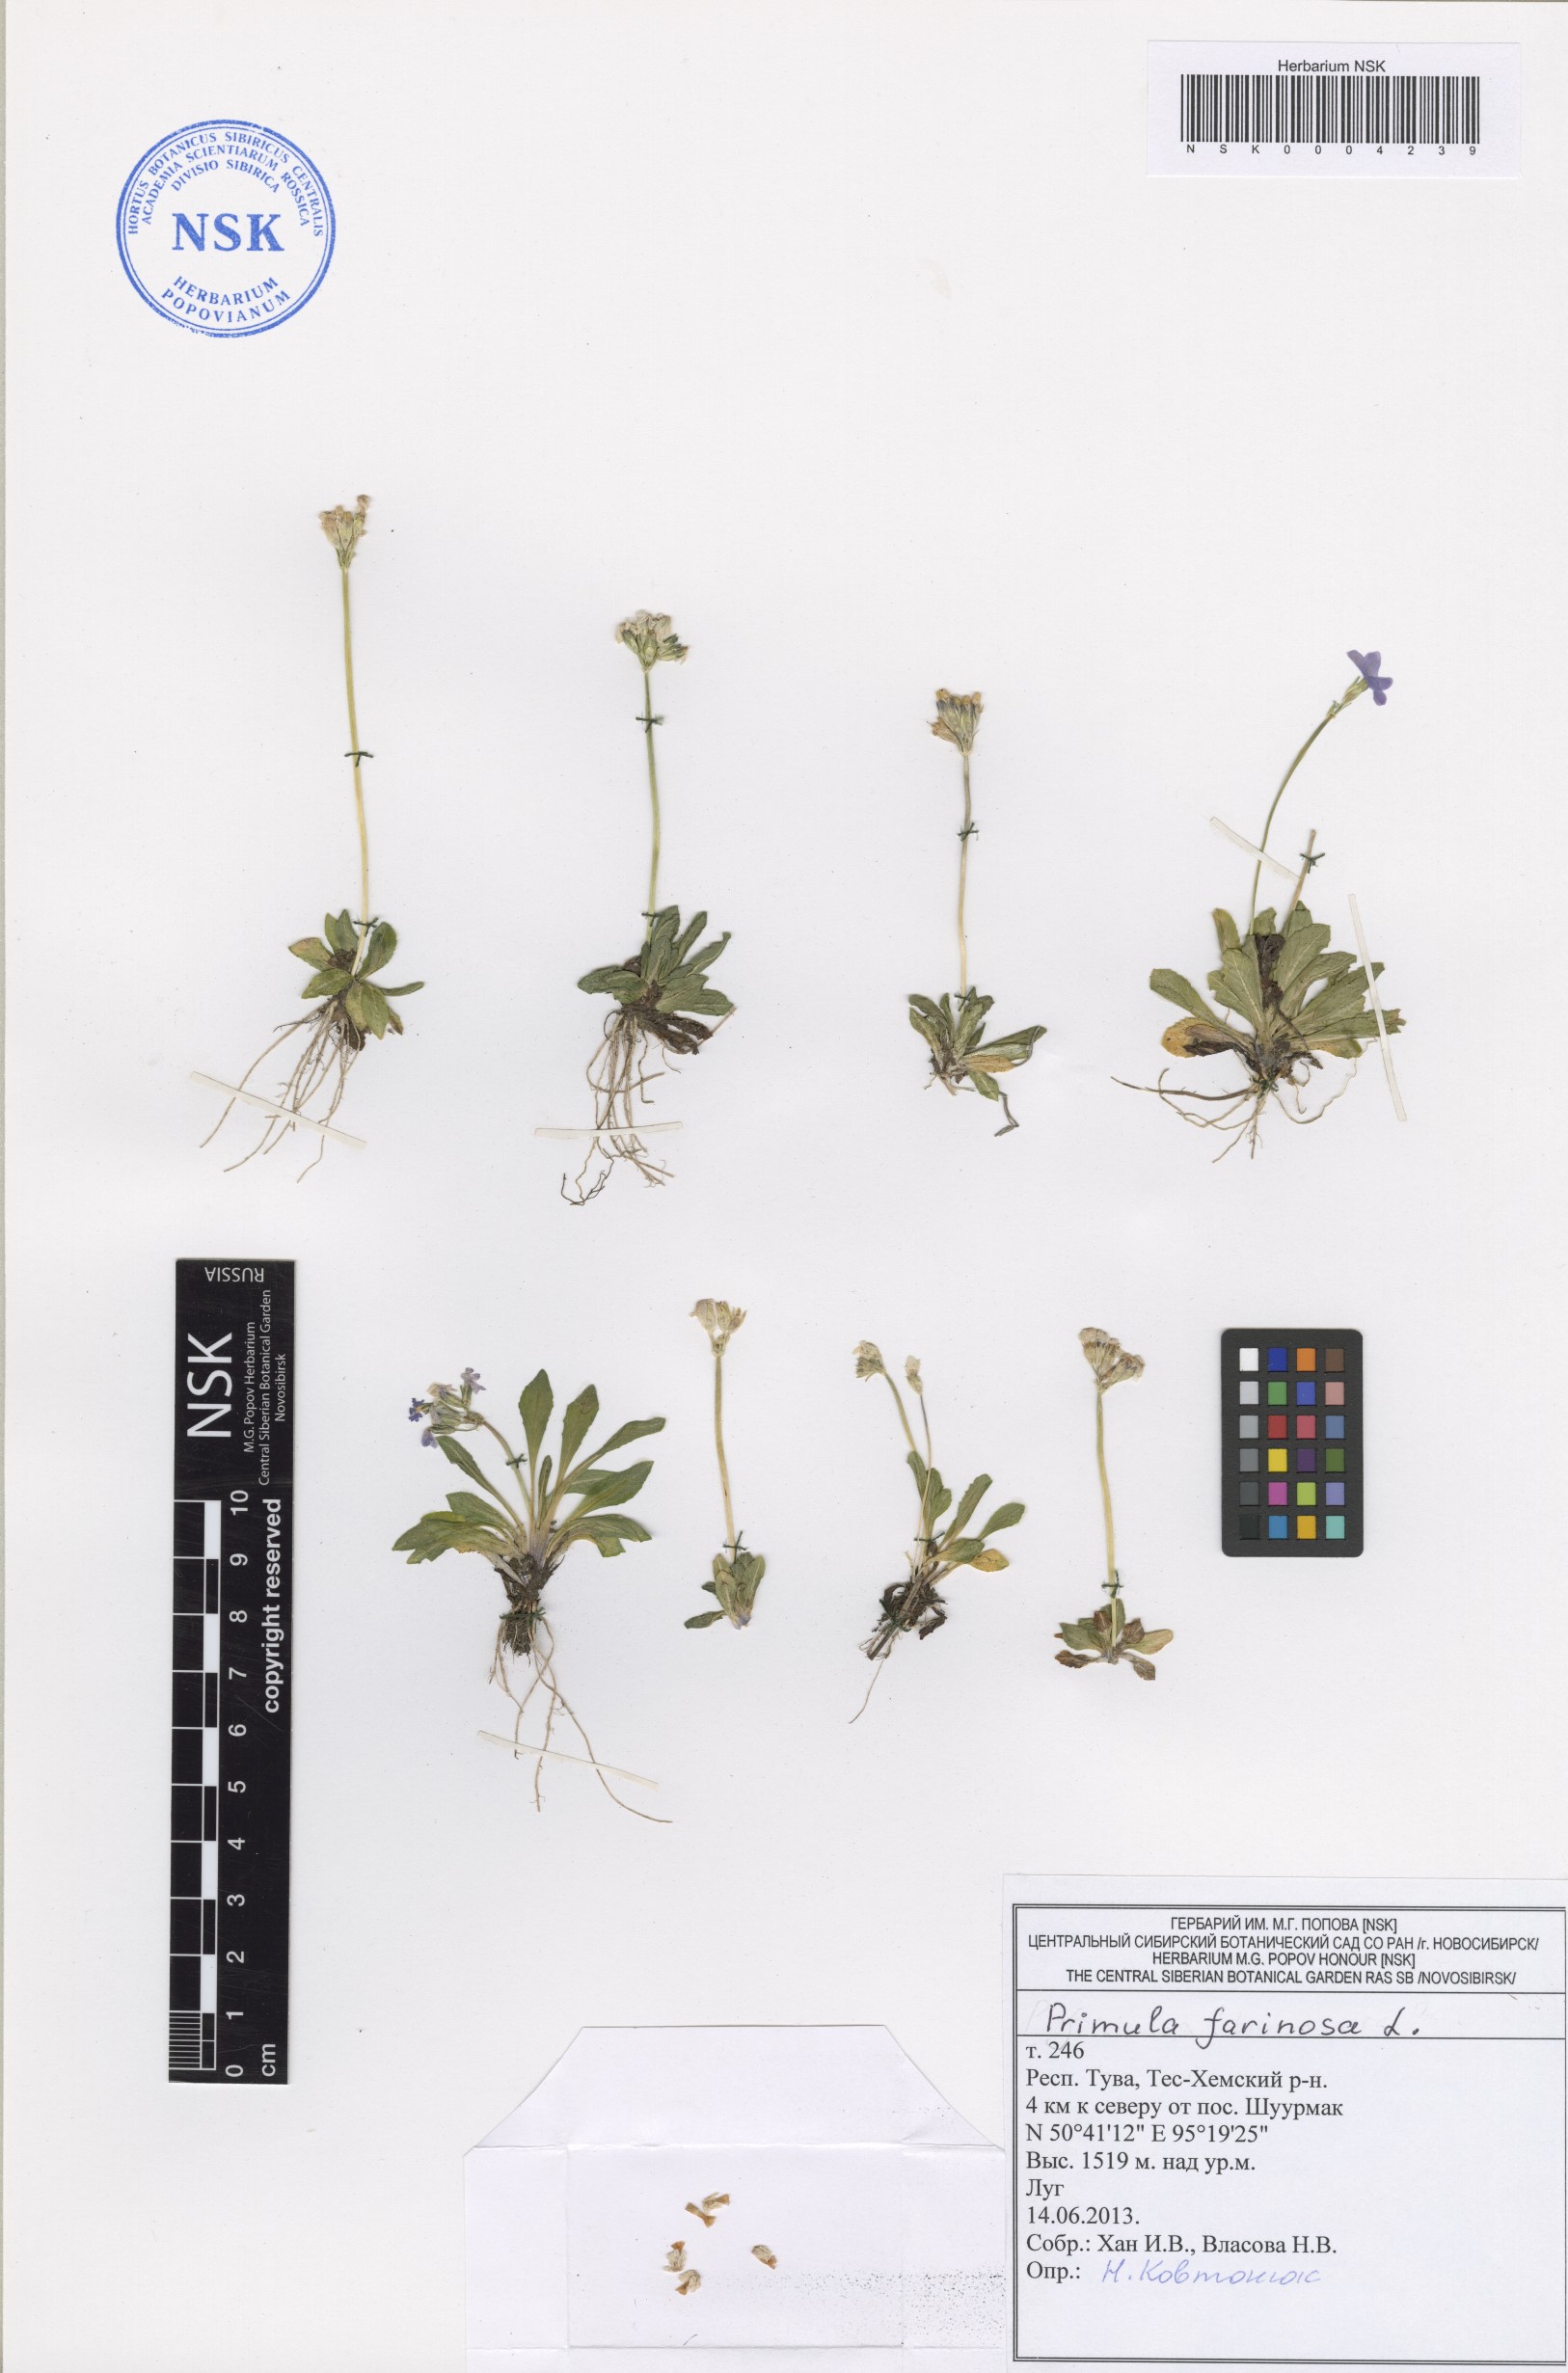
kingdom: Plantae
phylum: Tracheophyta
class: Magnoliopsida
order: Ericales
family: Primulaceae
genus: Primula
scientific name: Primula farinosa
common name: Bird's-eye primrose
